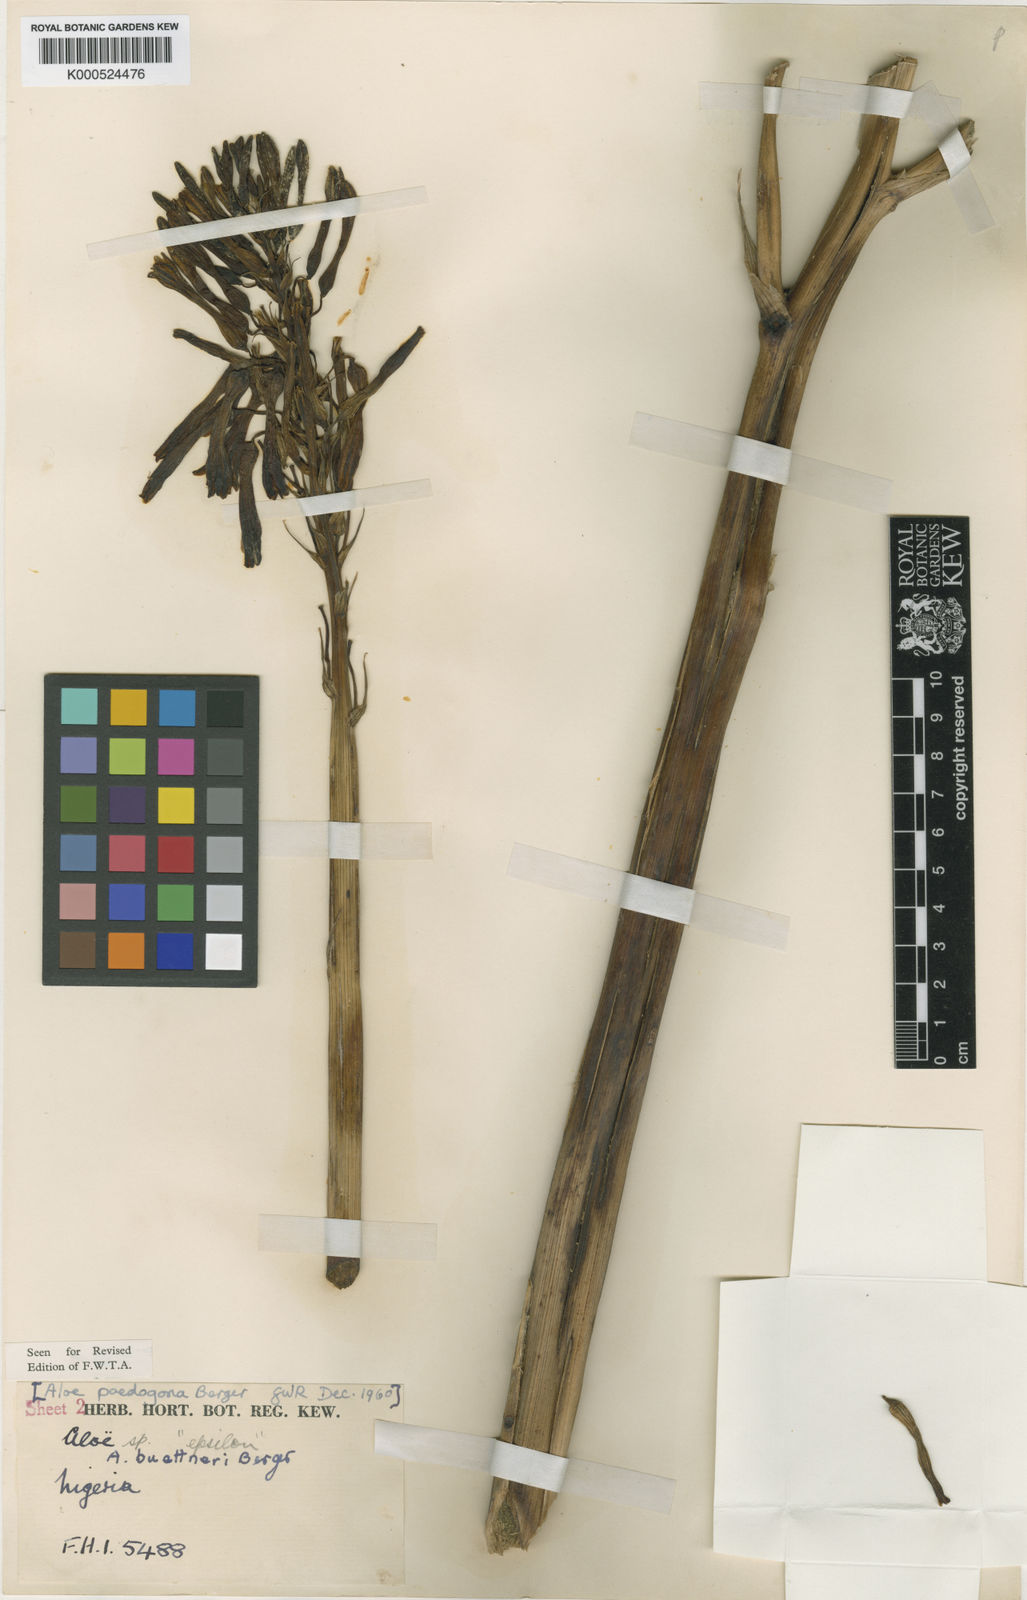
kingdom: Plantae
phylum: Tracheophyta
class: Liliopsida
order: Asparagales
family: Asphodelaceae
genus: Aloe
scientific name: Aloe buettneri
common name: West african aloe
